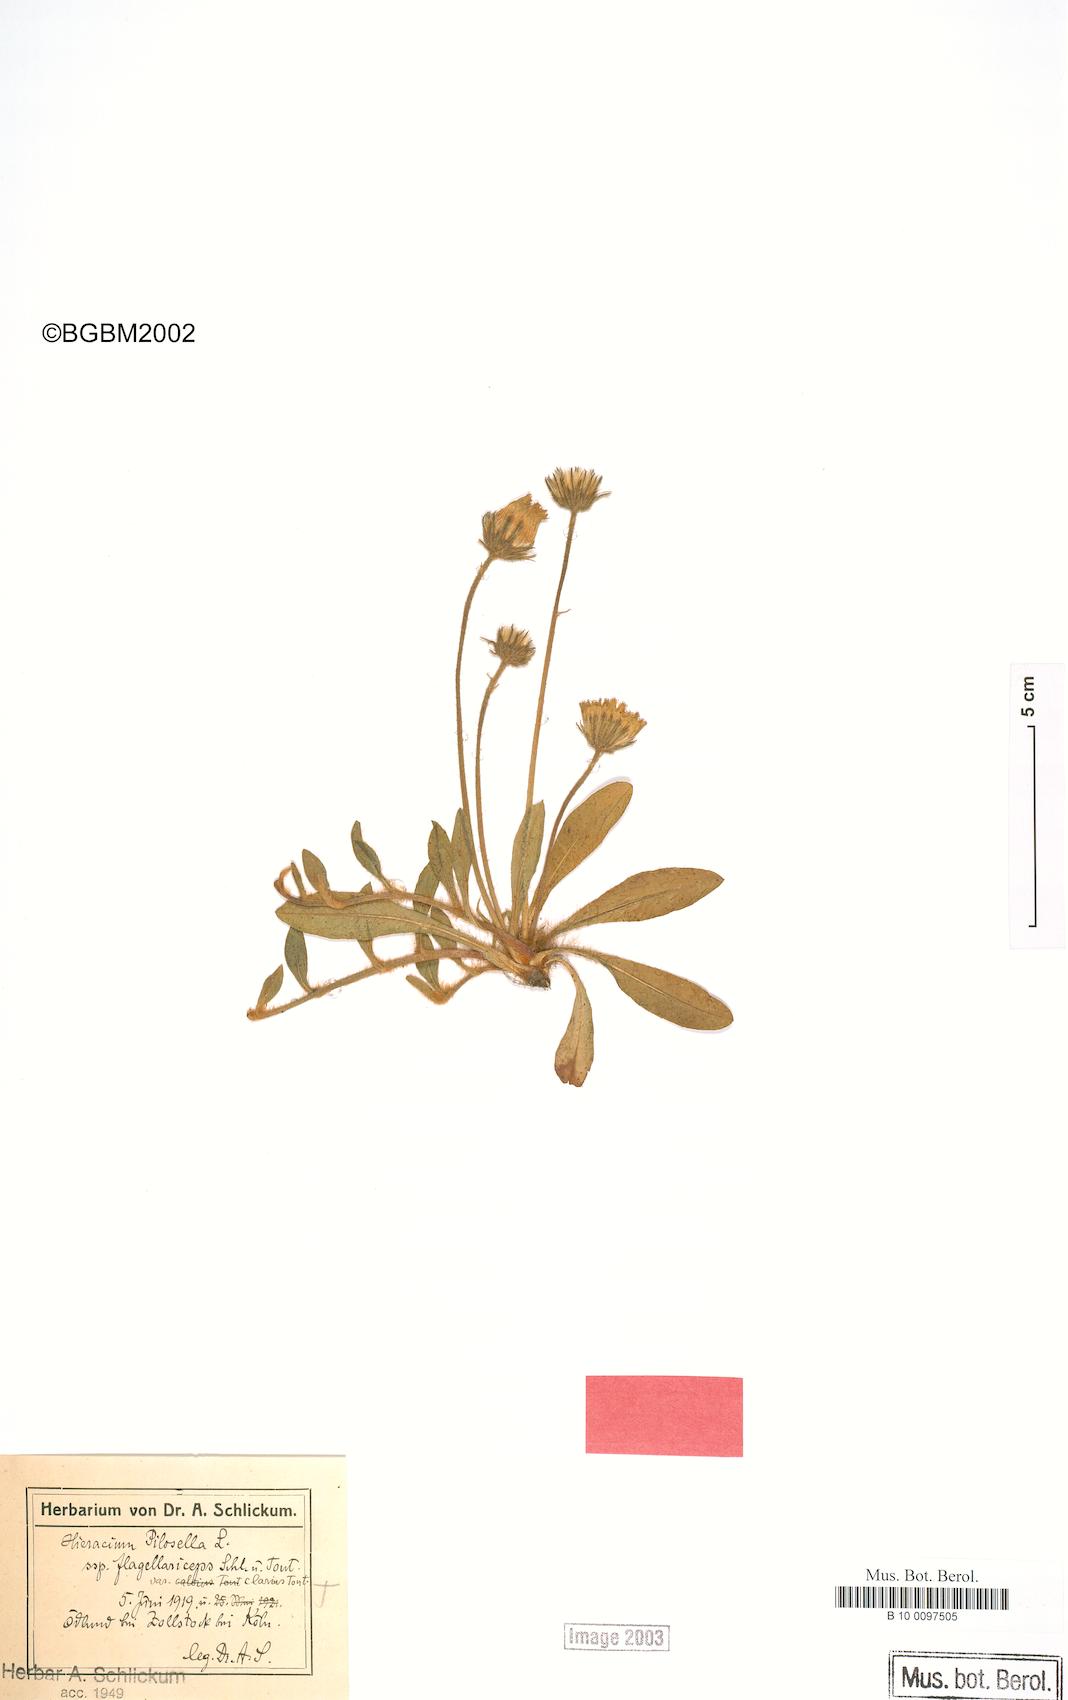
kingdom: Plantae
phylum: Tracheophyta
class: Magnoliopsida
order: Asterales
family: Asteraceae
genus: Pilosella
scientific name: Pilosella officinarum
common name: Mouse-ear hawkweed
